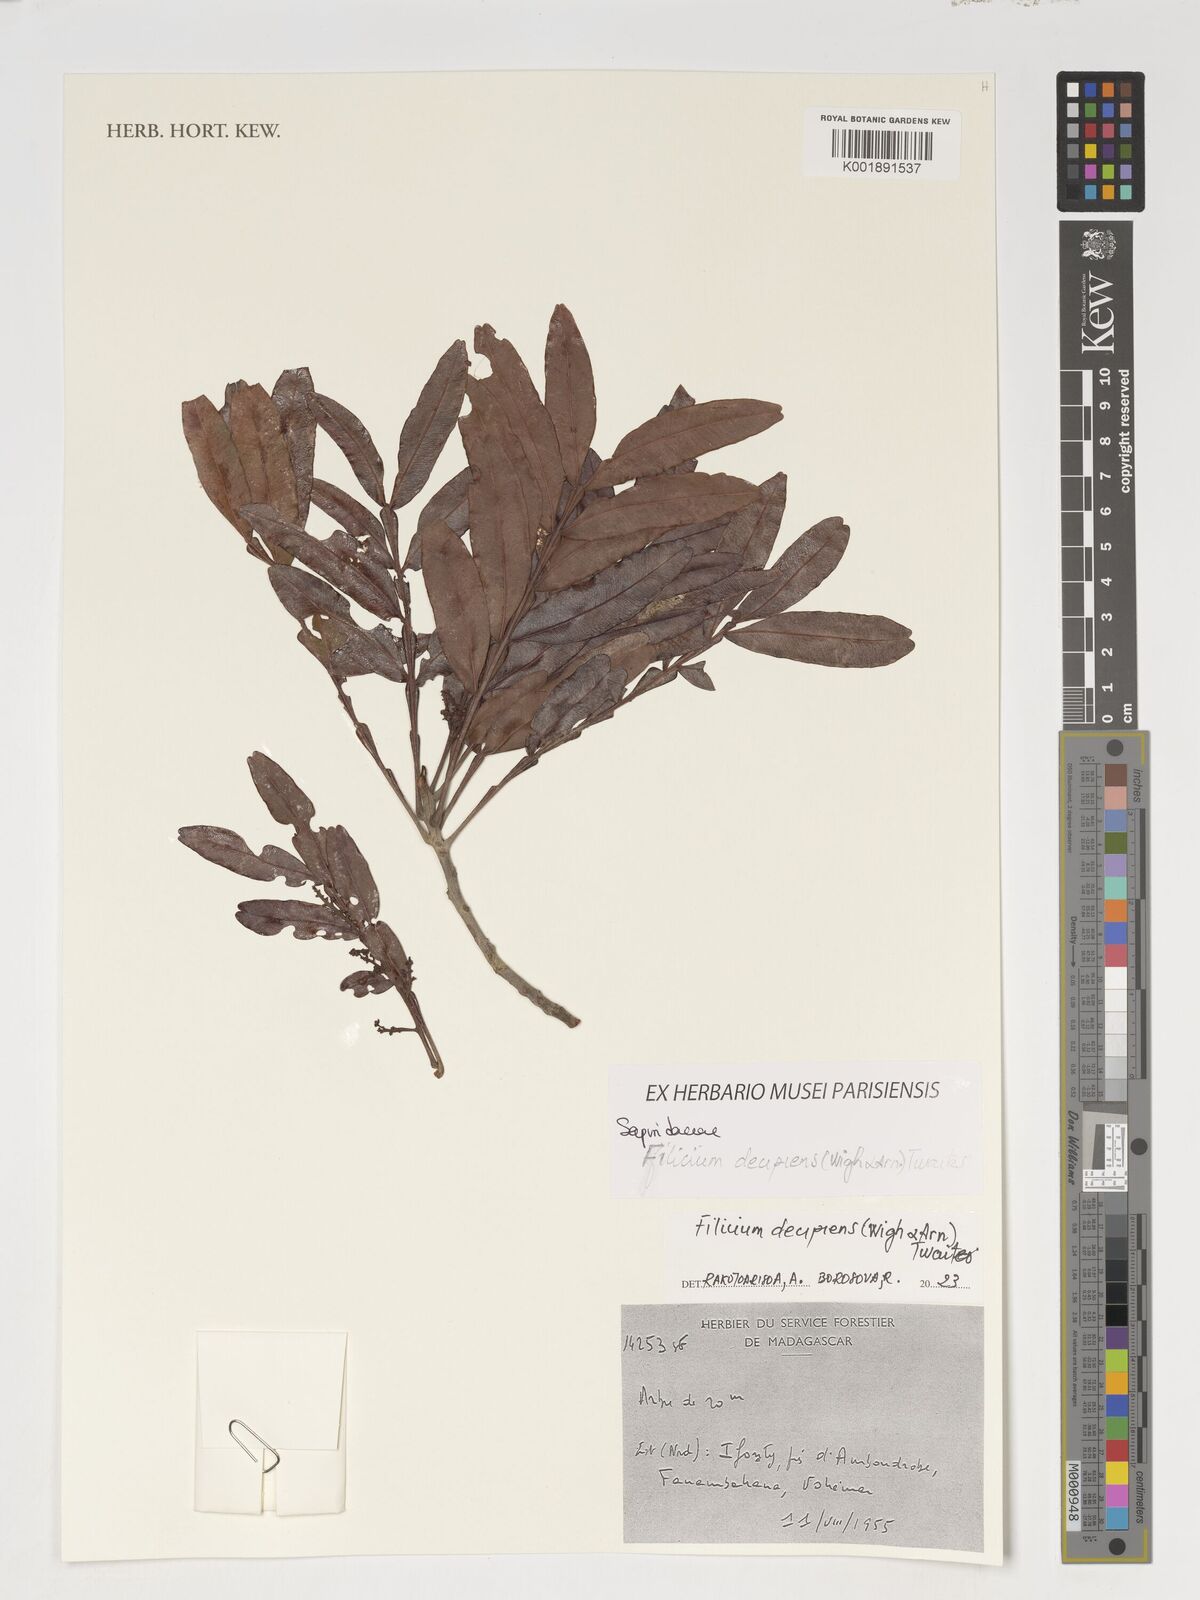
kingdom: Plantae
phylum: Tracheophyta
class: Magnoliopsida
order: Sapindales
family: Sapindaceae
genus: Filicium
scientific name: Filicium decipiens
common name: Ferntree
